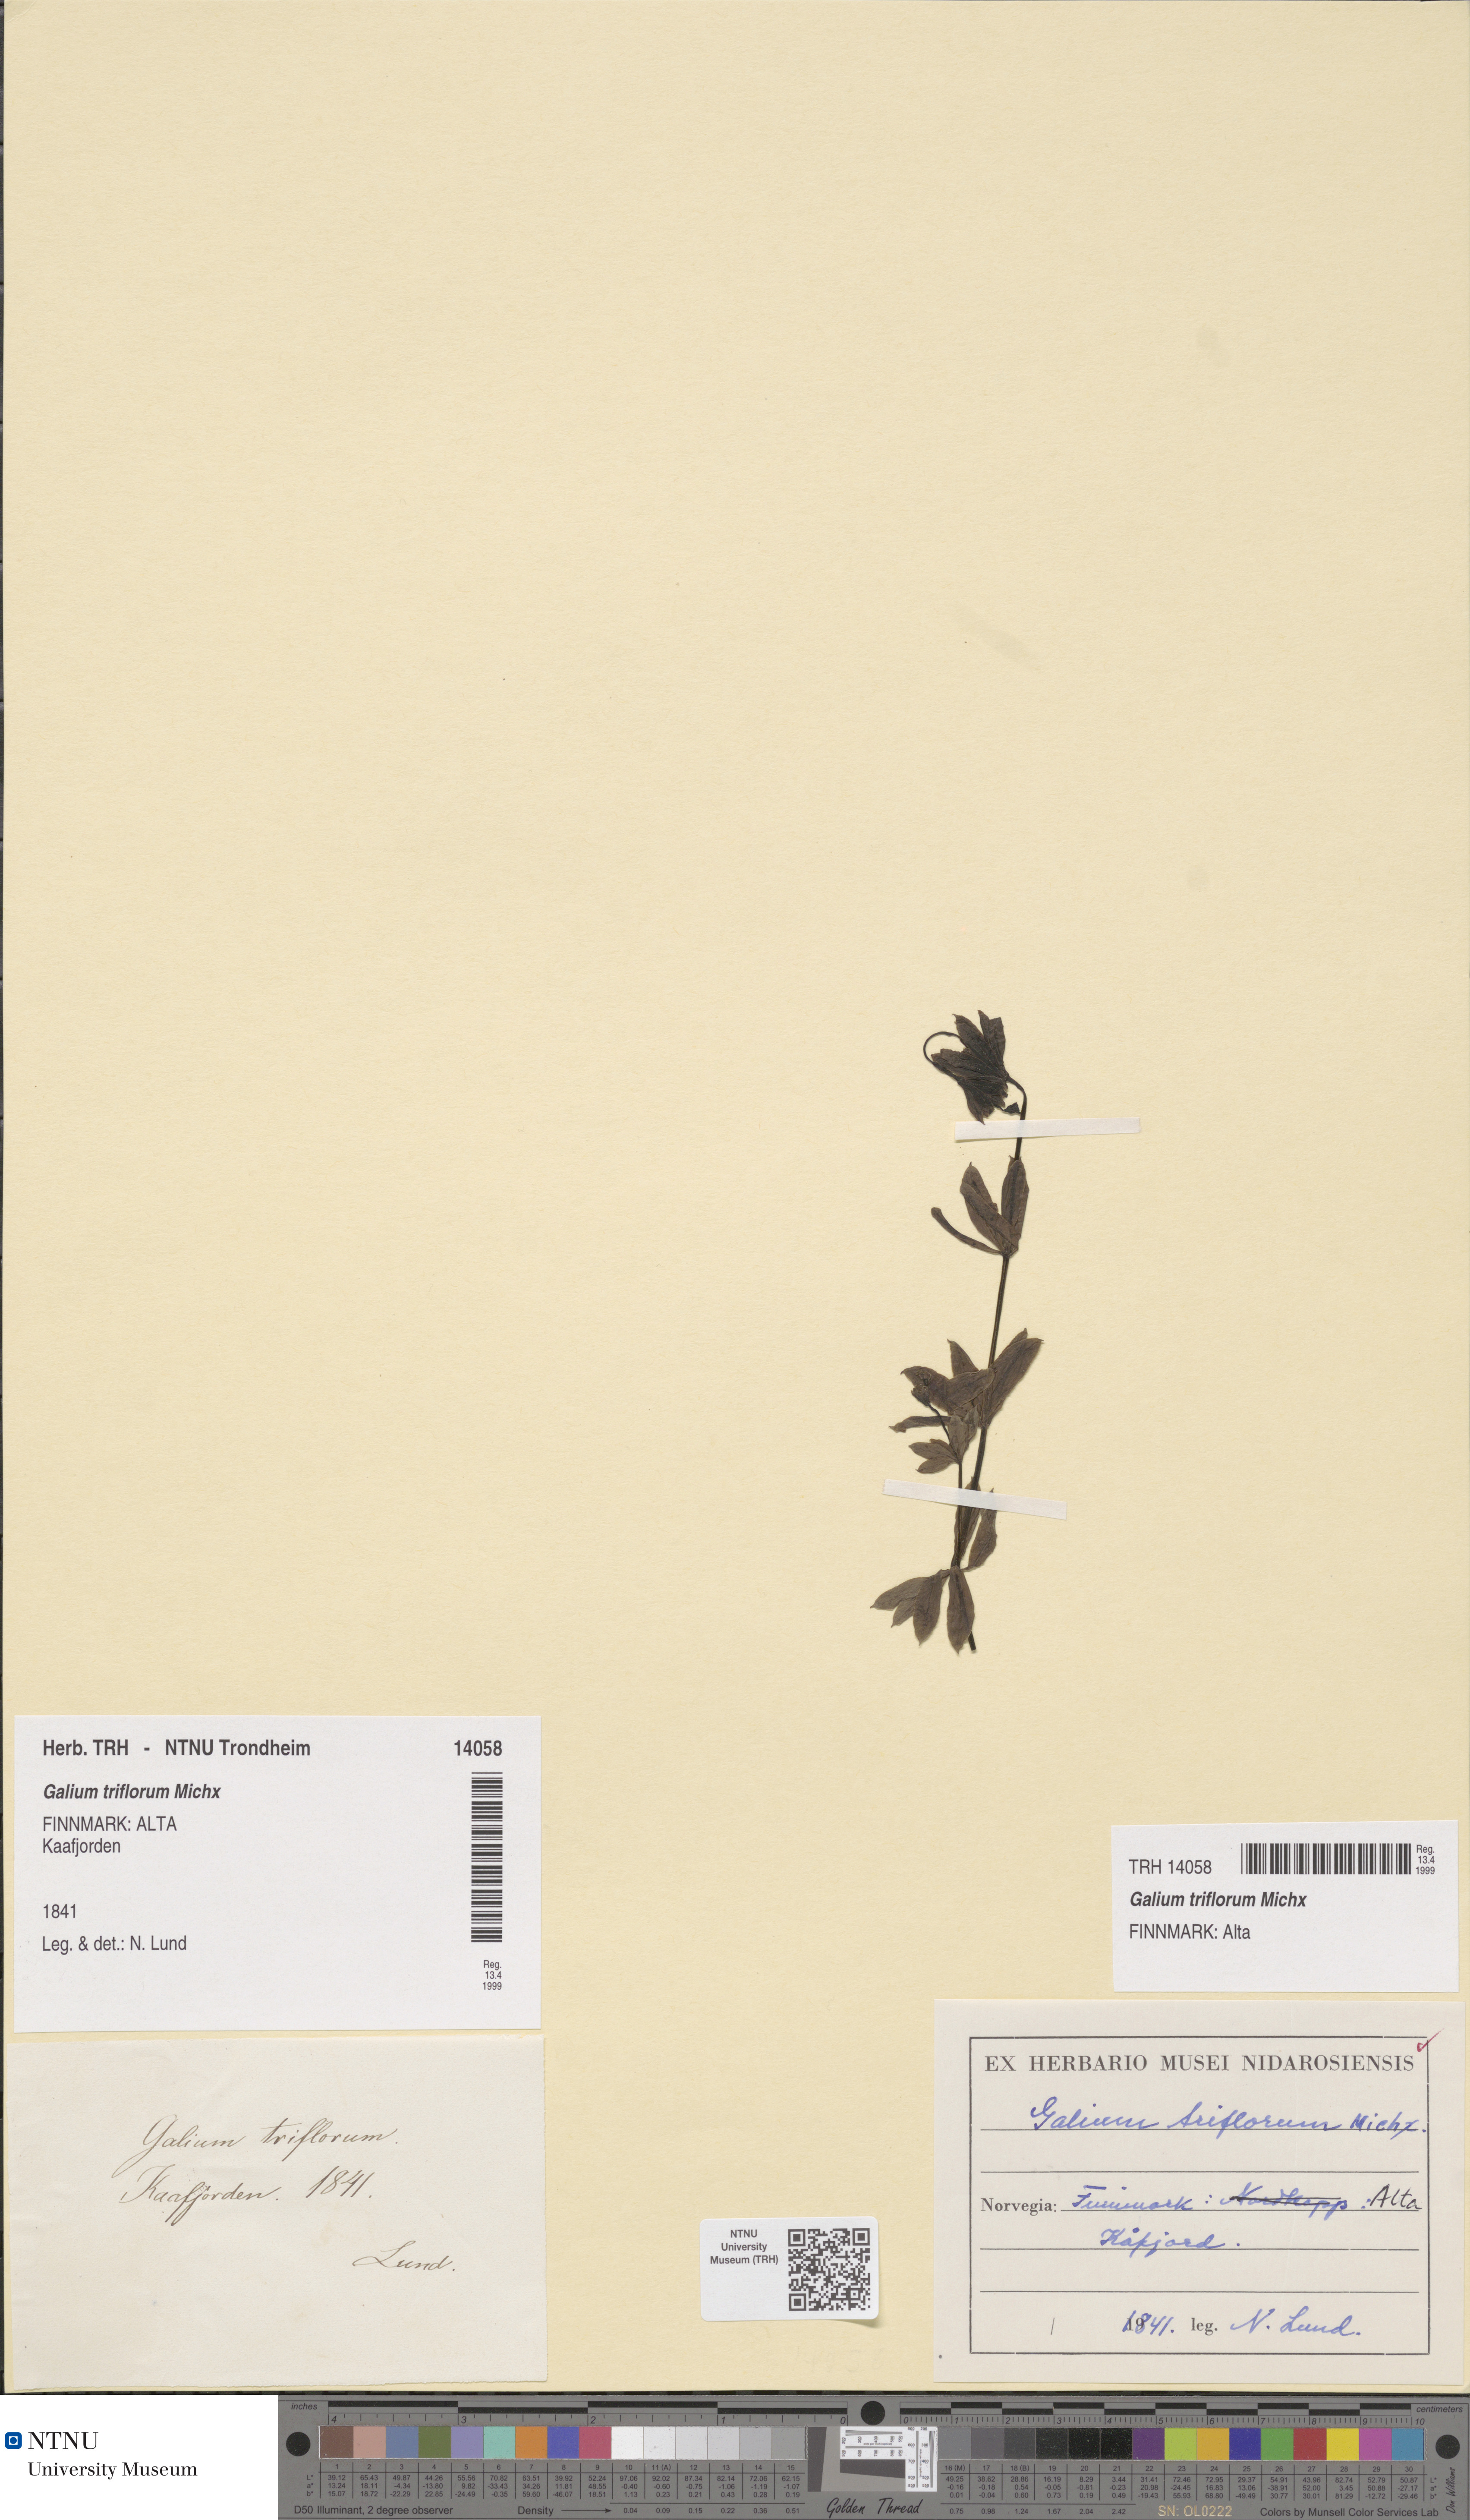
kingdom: Plantae
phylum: Tracheophyta
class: Magnoliopsida
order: Gentianales
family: Rubiaceae
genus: Galium
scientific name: Galium triflorum
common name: Fragrant bedstraw
